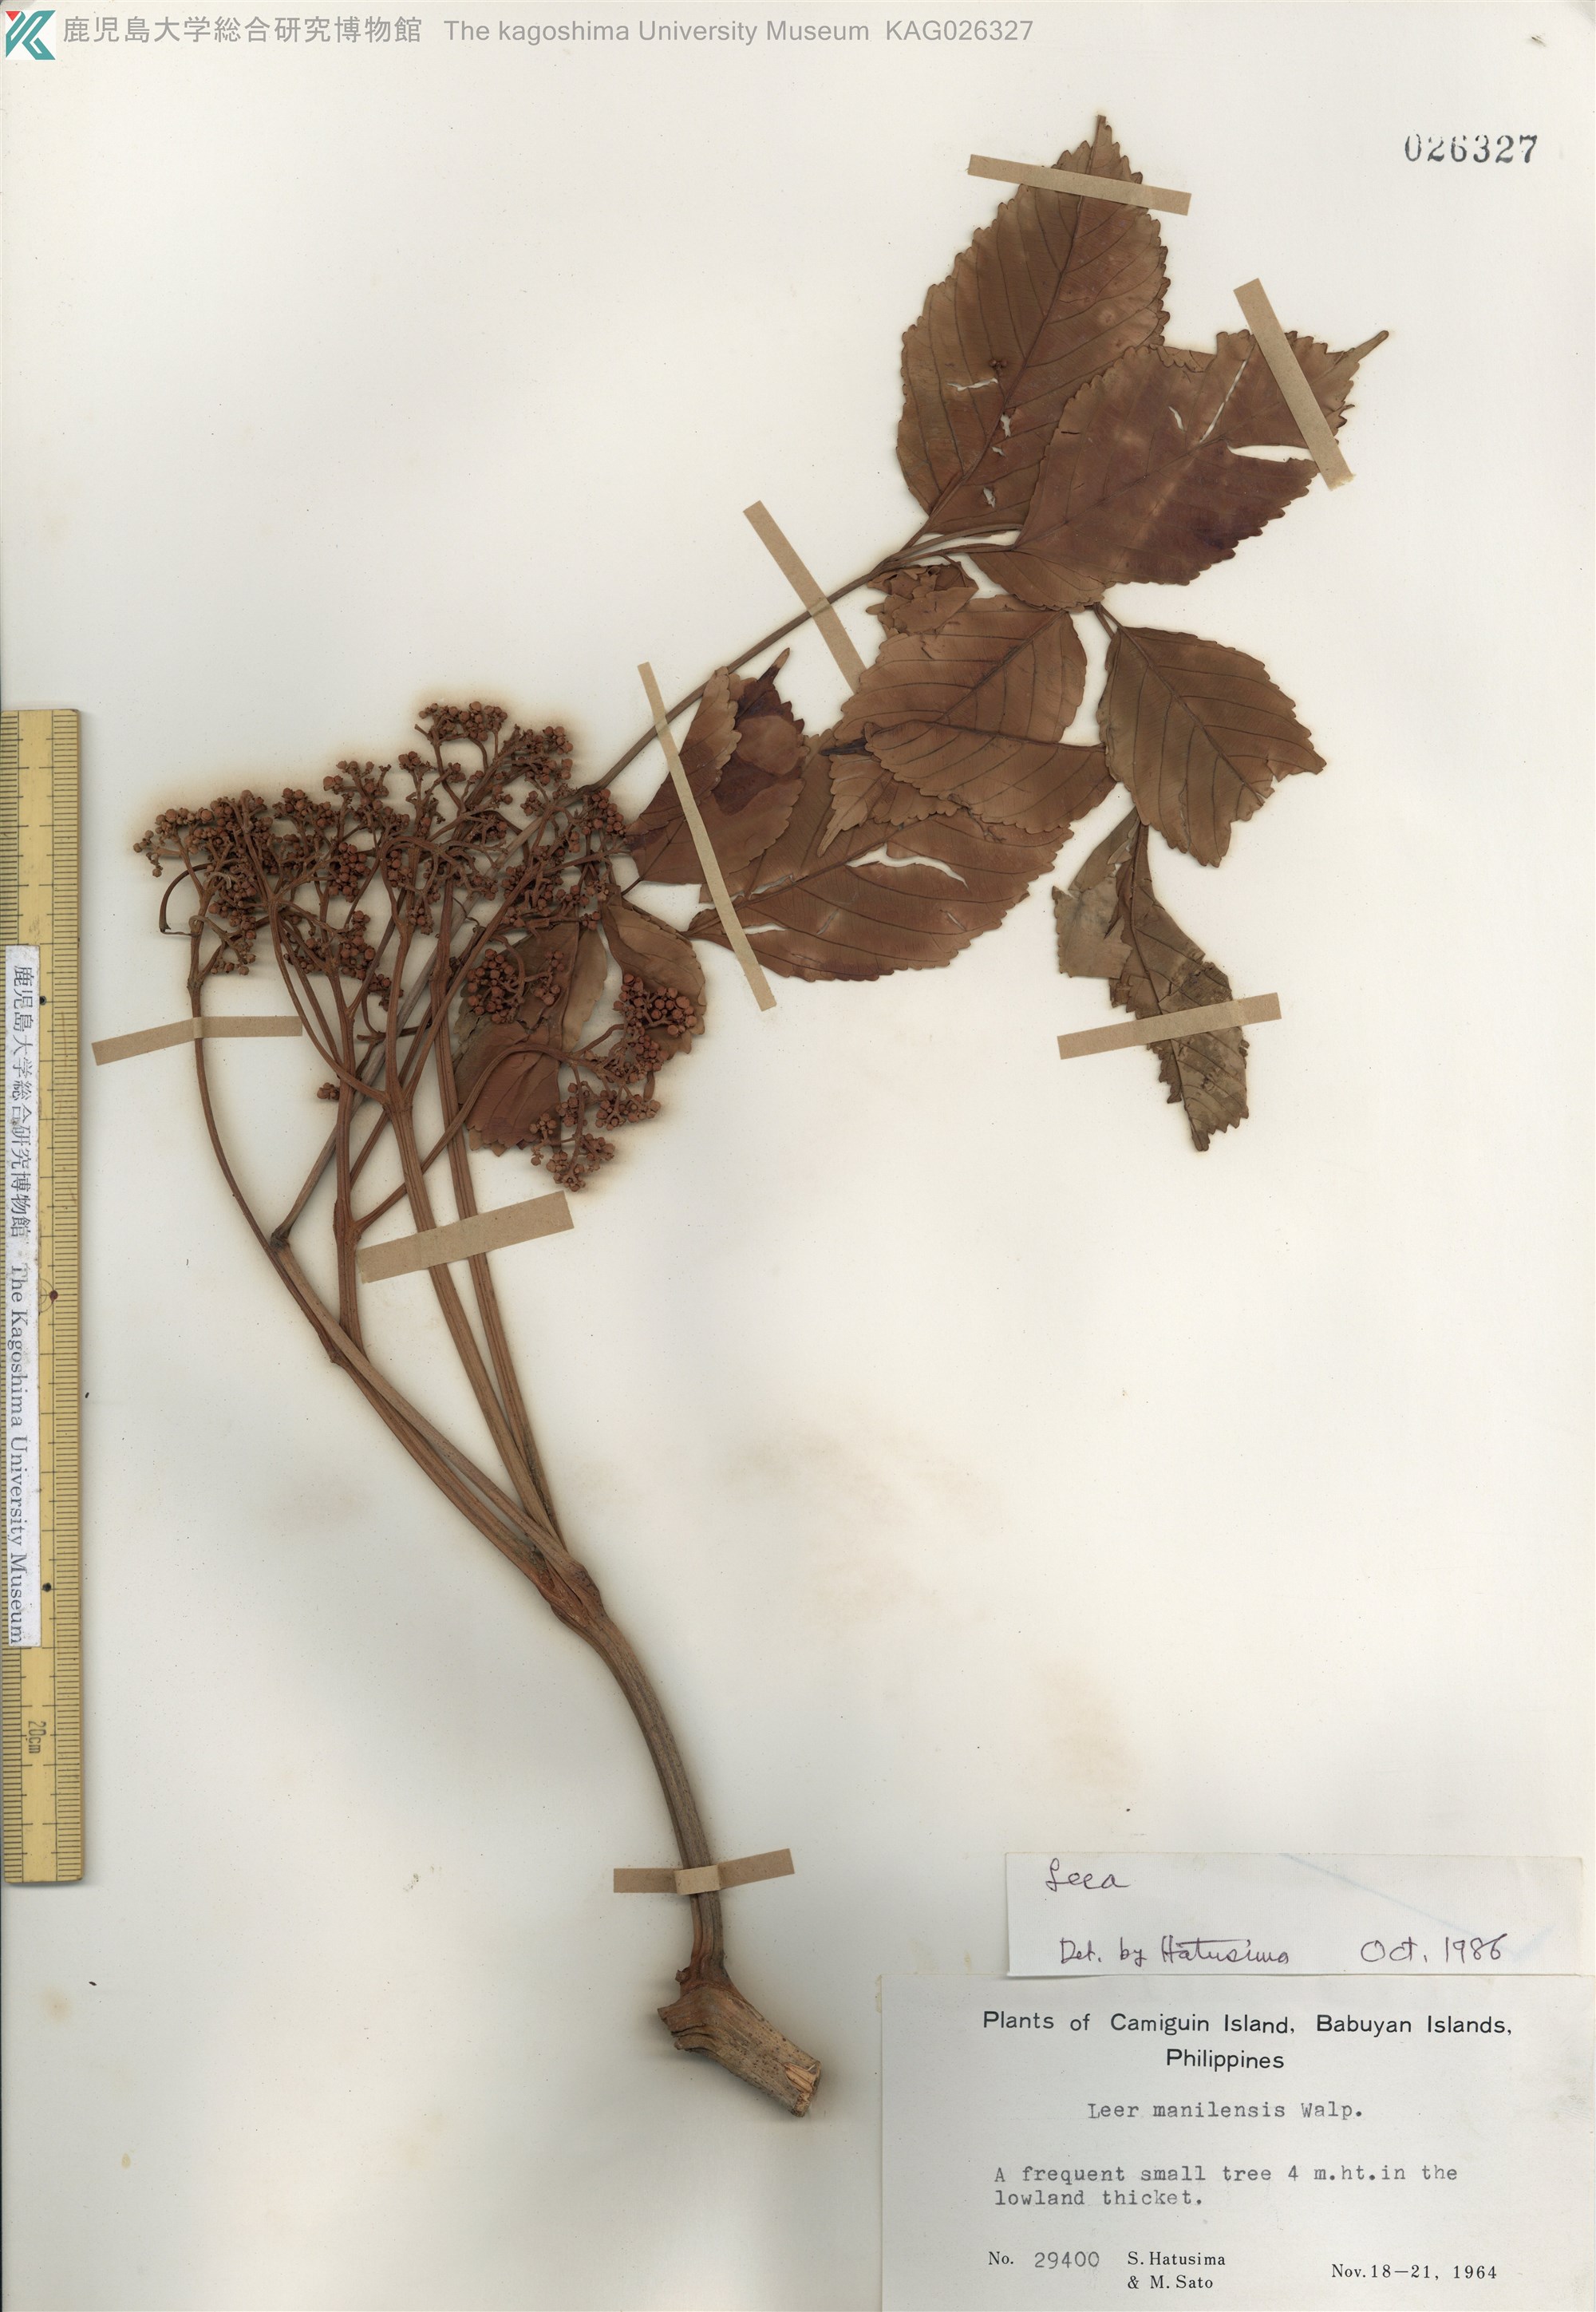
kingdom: Plantae
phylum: Tracheophyta
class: Magnoliopsida
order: Vitales
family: Vitaceae
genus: Leea
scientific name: Leea guineensis
